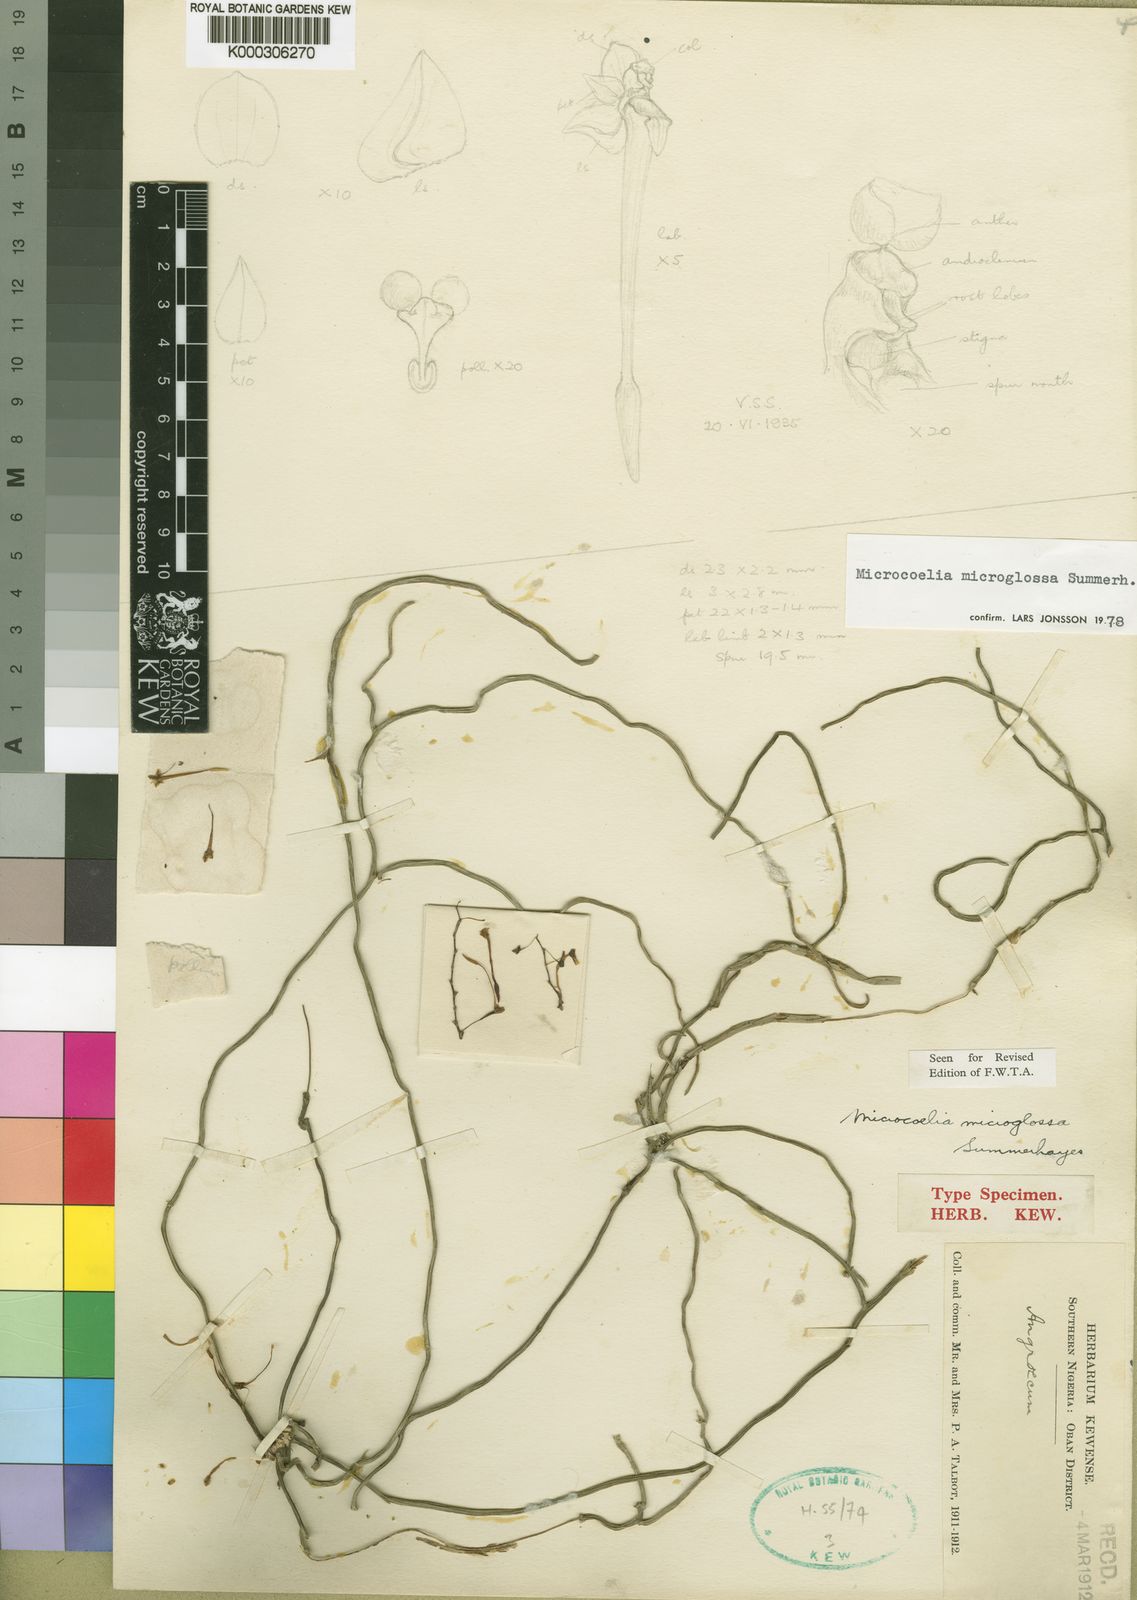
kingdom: Plantae
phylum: Tracheophyta
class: Liliopsida
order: Asparagales
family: Orchidaceae
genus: Microcoelia
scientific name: Microcoelia microglossa
